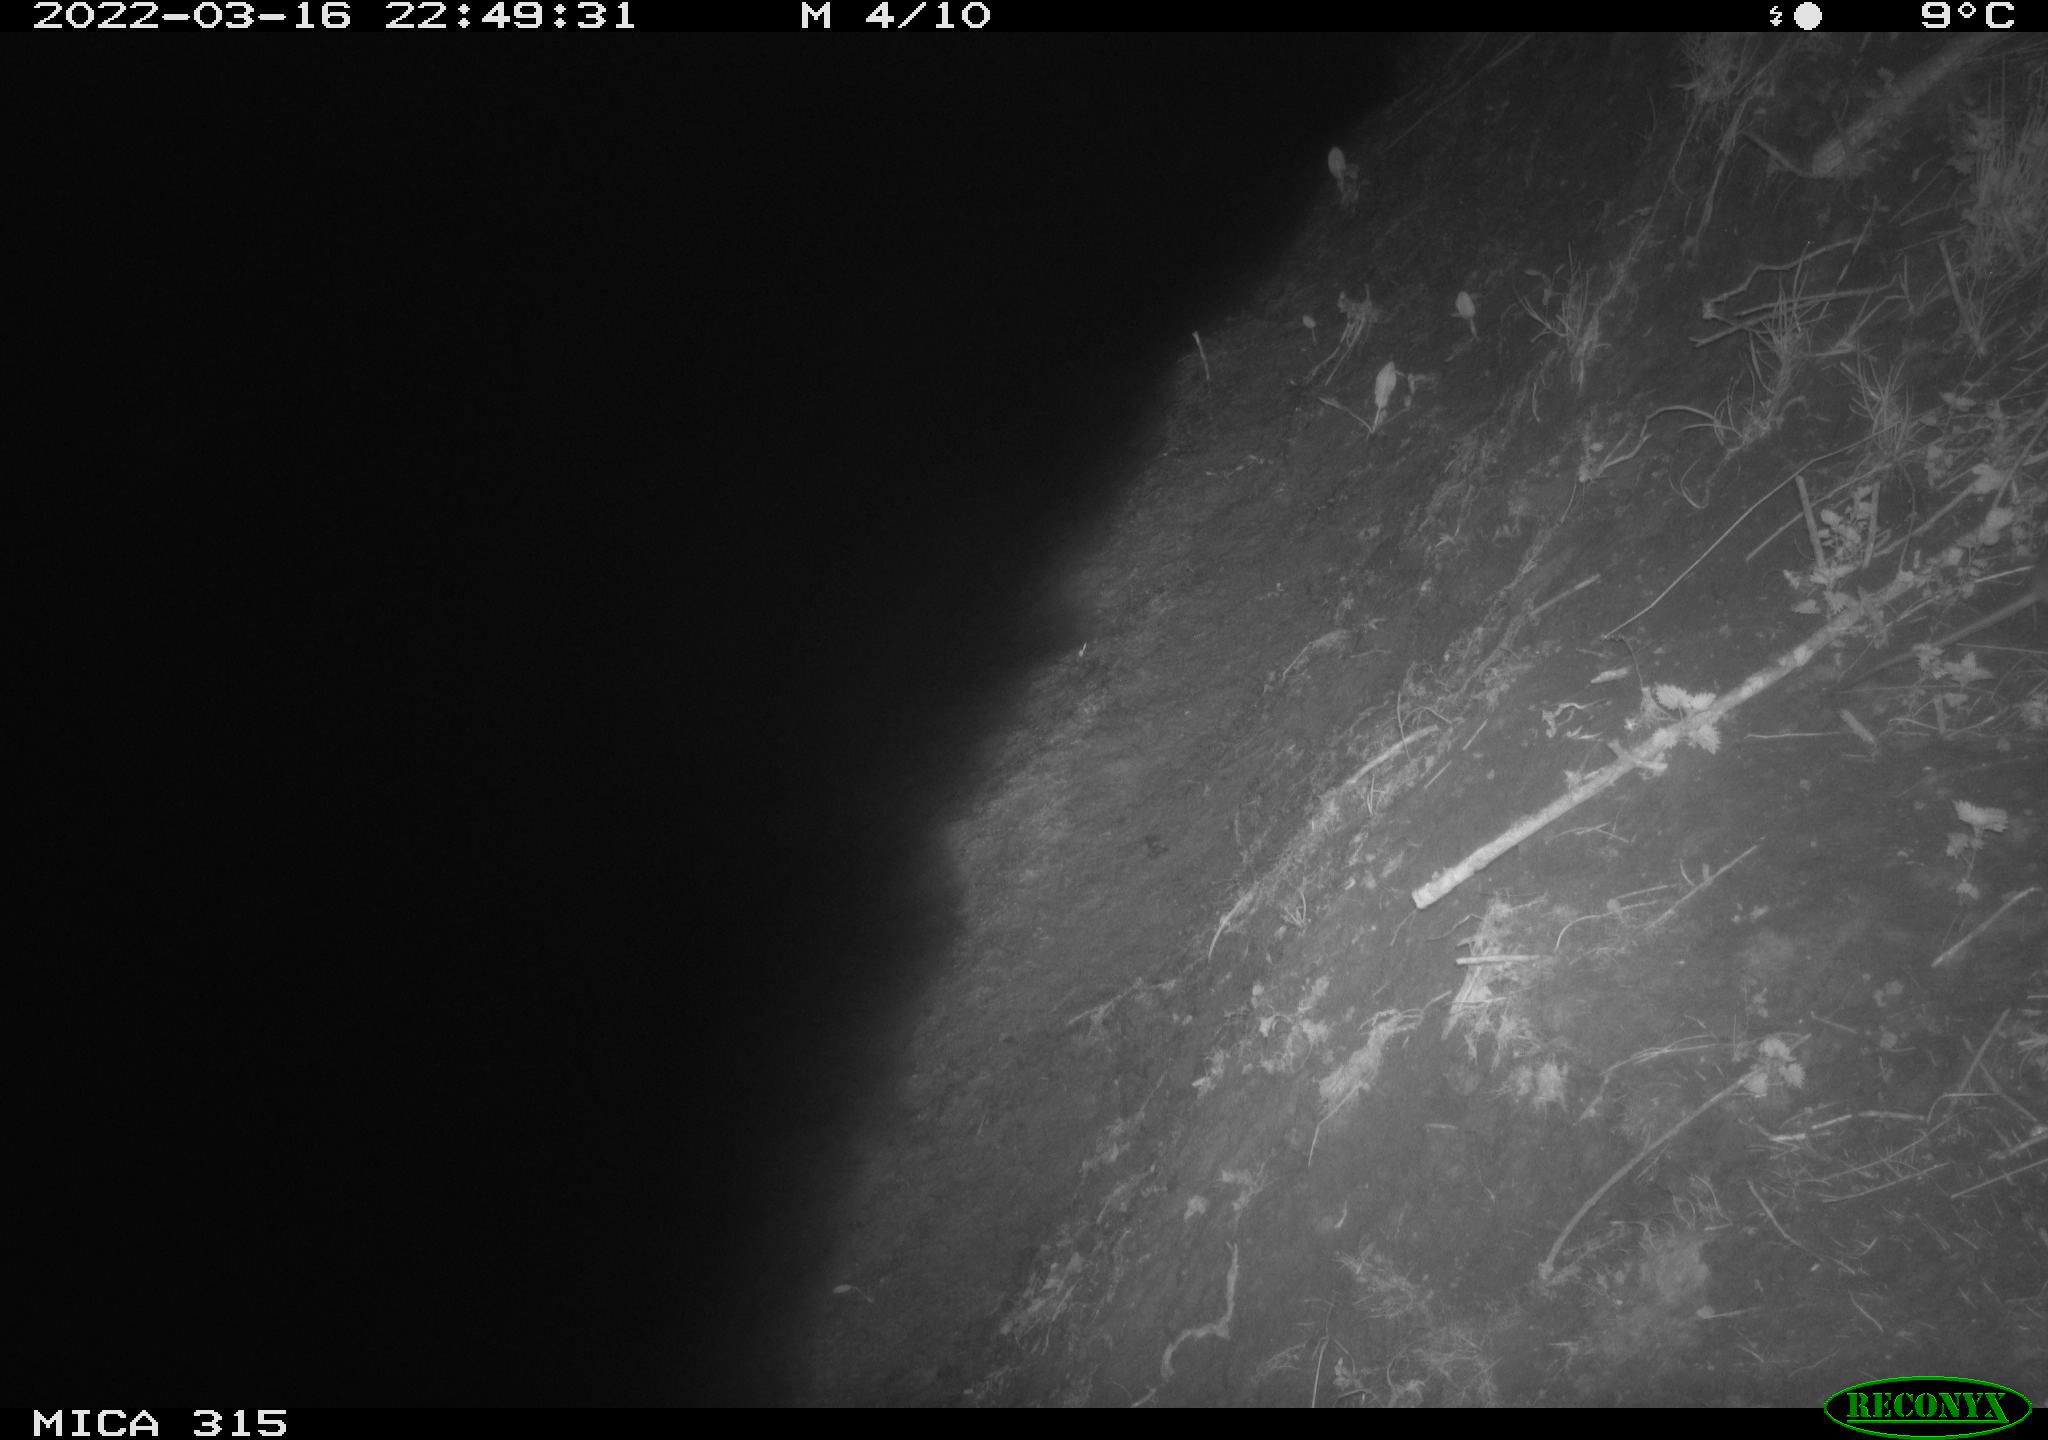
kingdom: Animalia
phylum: Chordata
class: Mammalia
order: Rodentia
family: Muridae
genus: Rattus
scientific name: Rattus norvegicus
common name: Brown rat
